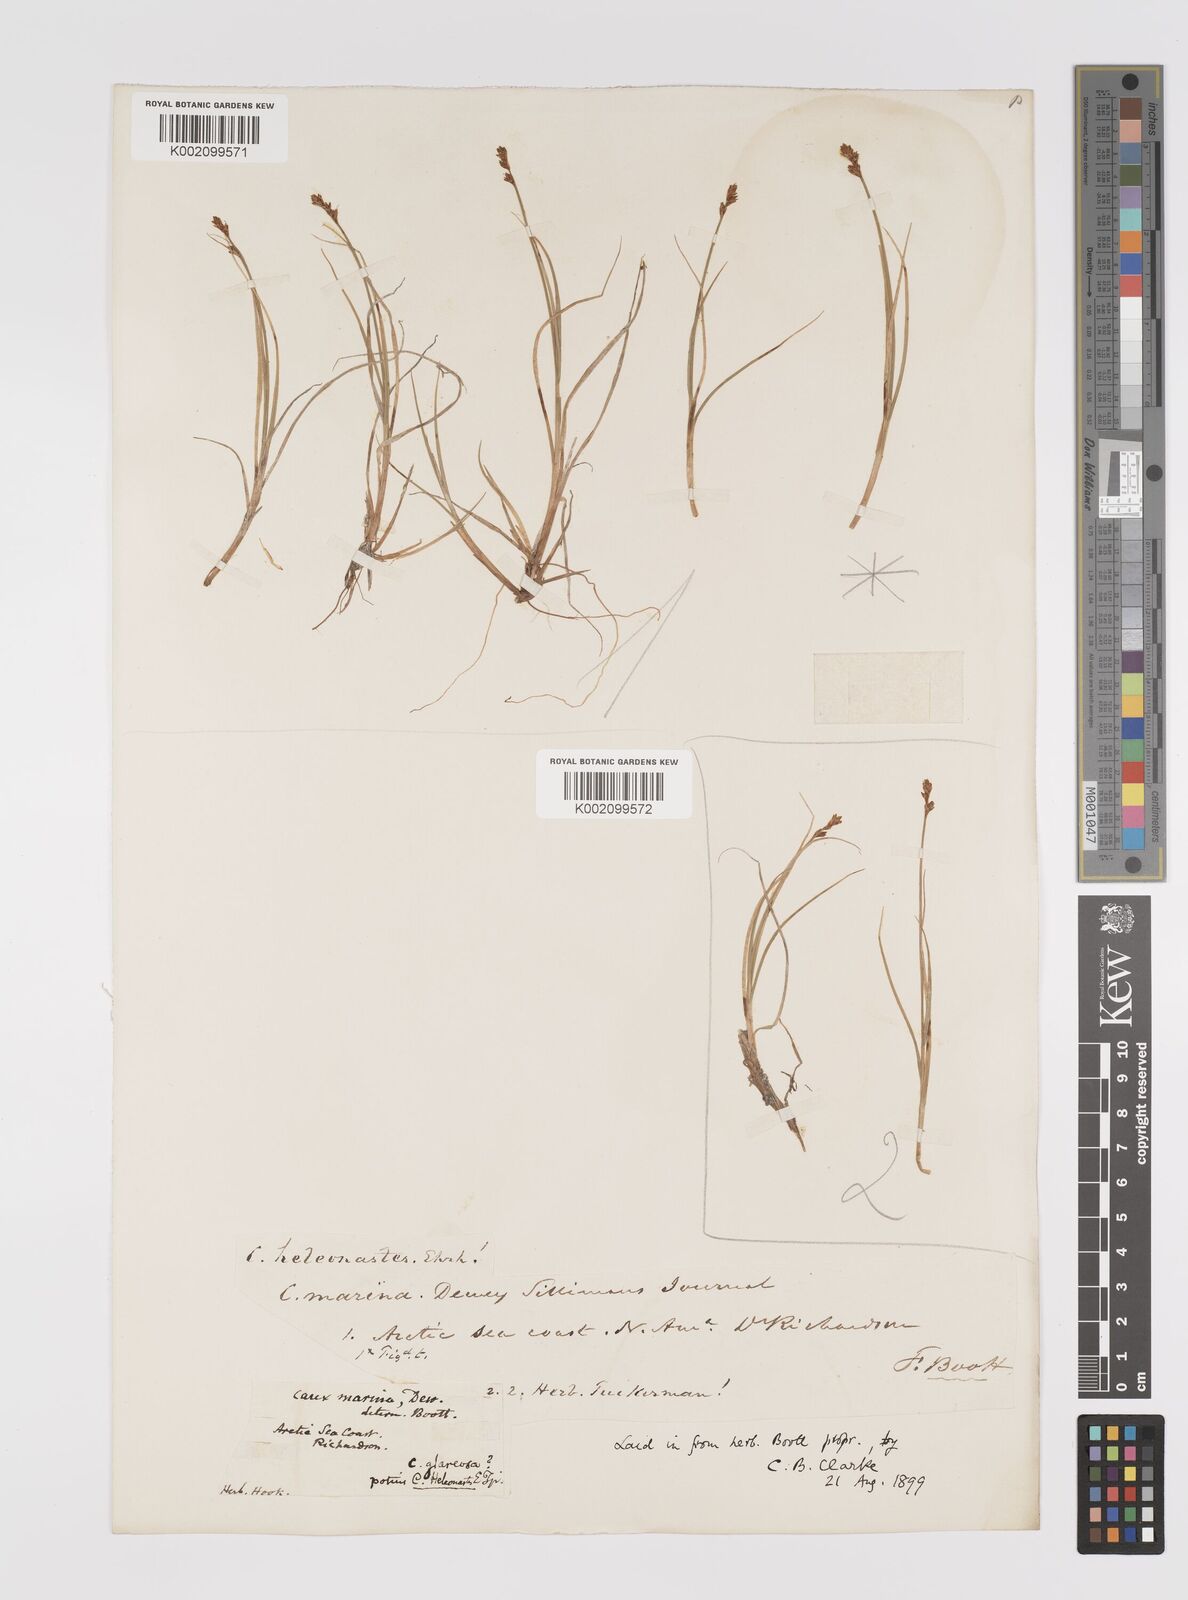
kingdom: Plantae
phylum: Tracheophyta
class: Liliopsida
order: Poales
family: Cyperaceae
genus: Carex
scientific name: Carex heleonastes
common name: Hudson bay sedge
